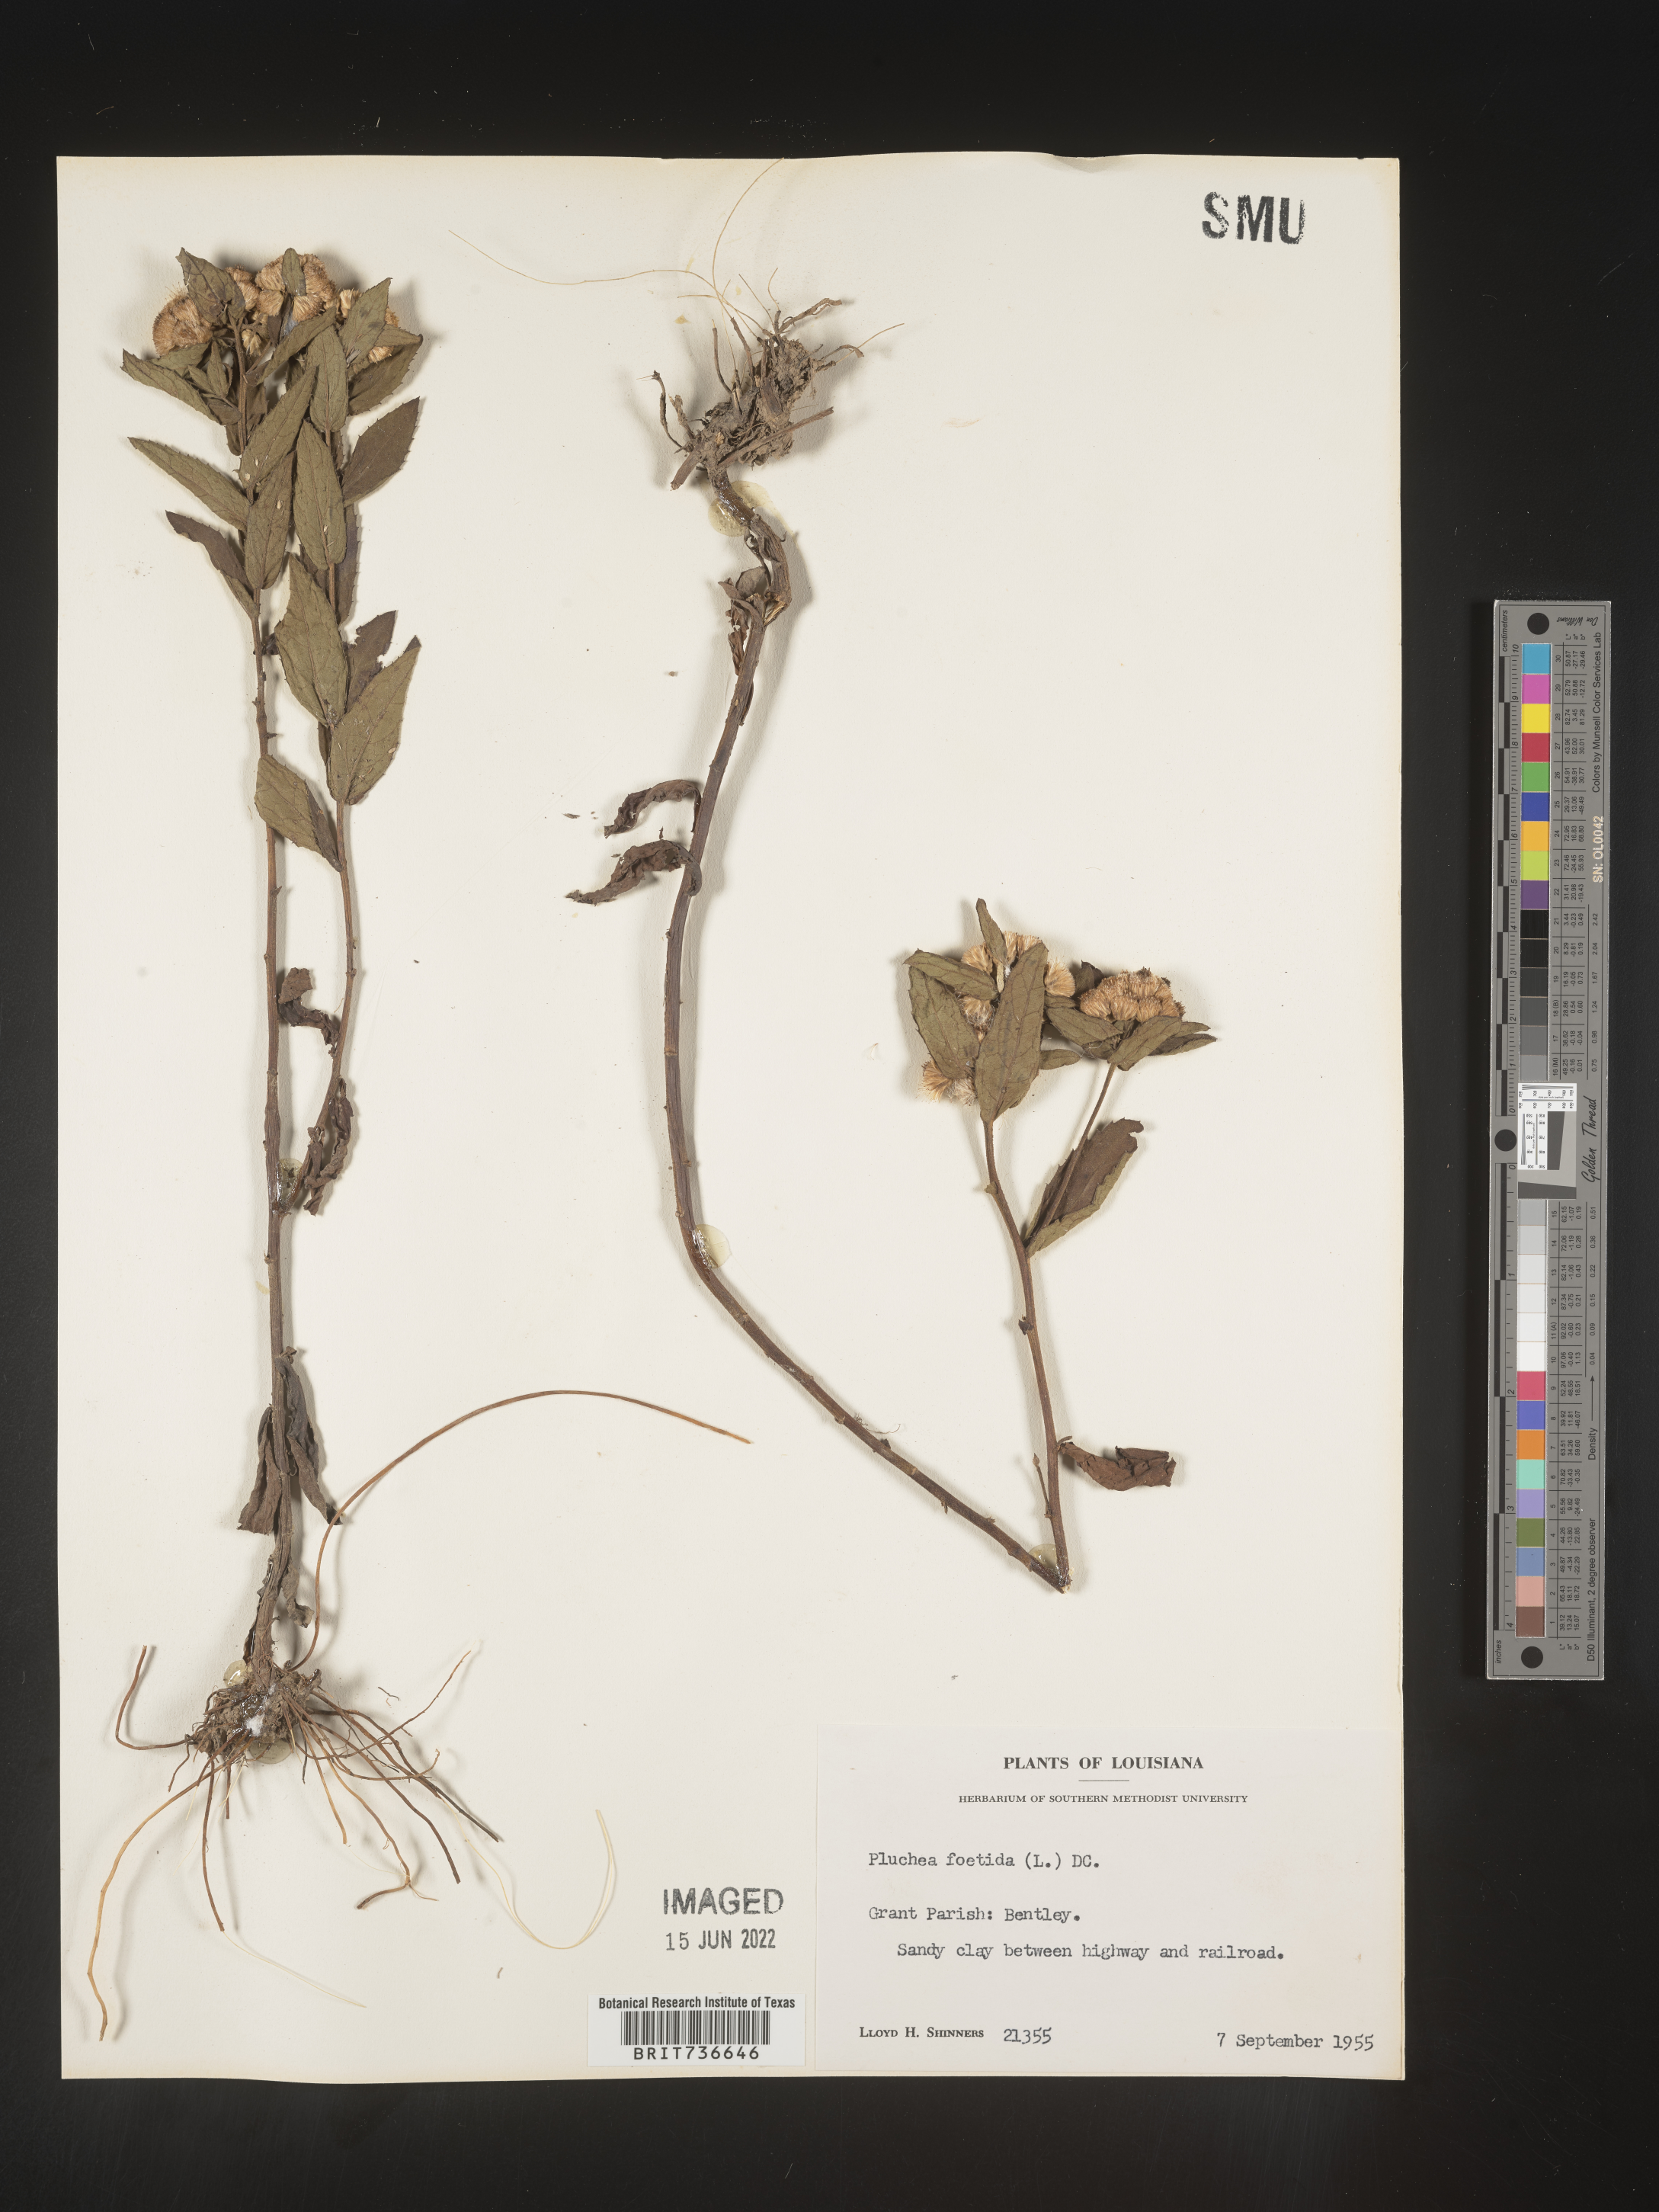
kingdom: Plantae
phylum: Tracheophyta
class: Magnoliopsida
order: Asterales
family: Asteraceae
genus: Pluchea
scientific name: Pluchea foetida
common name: Stinking camphorweed
